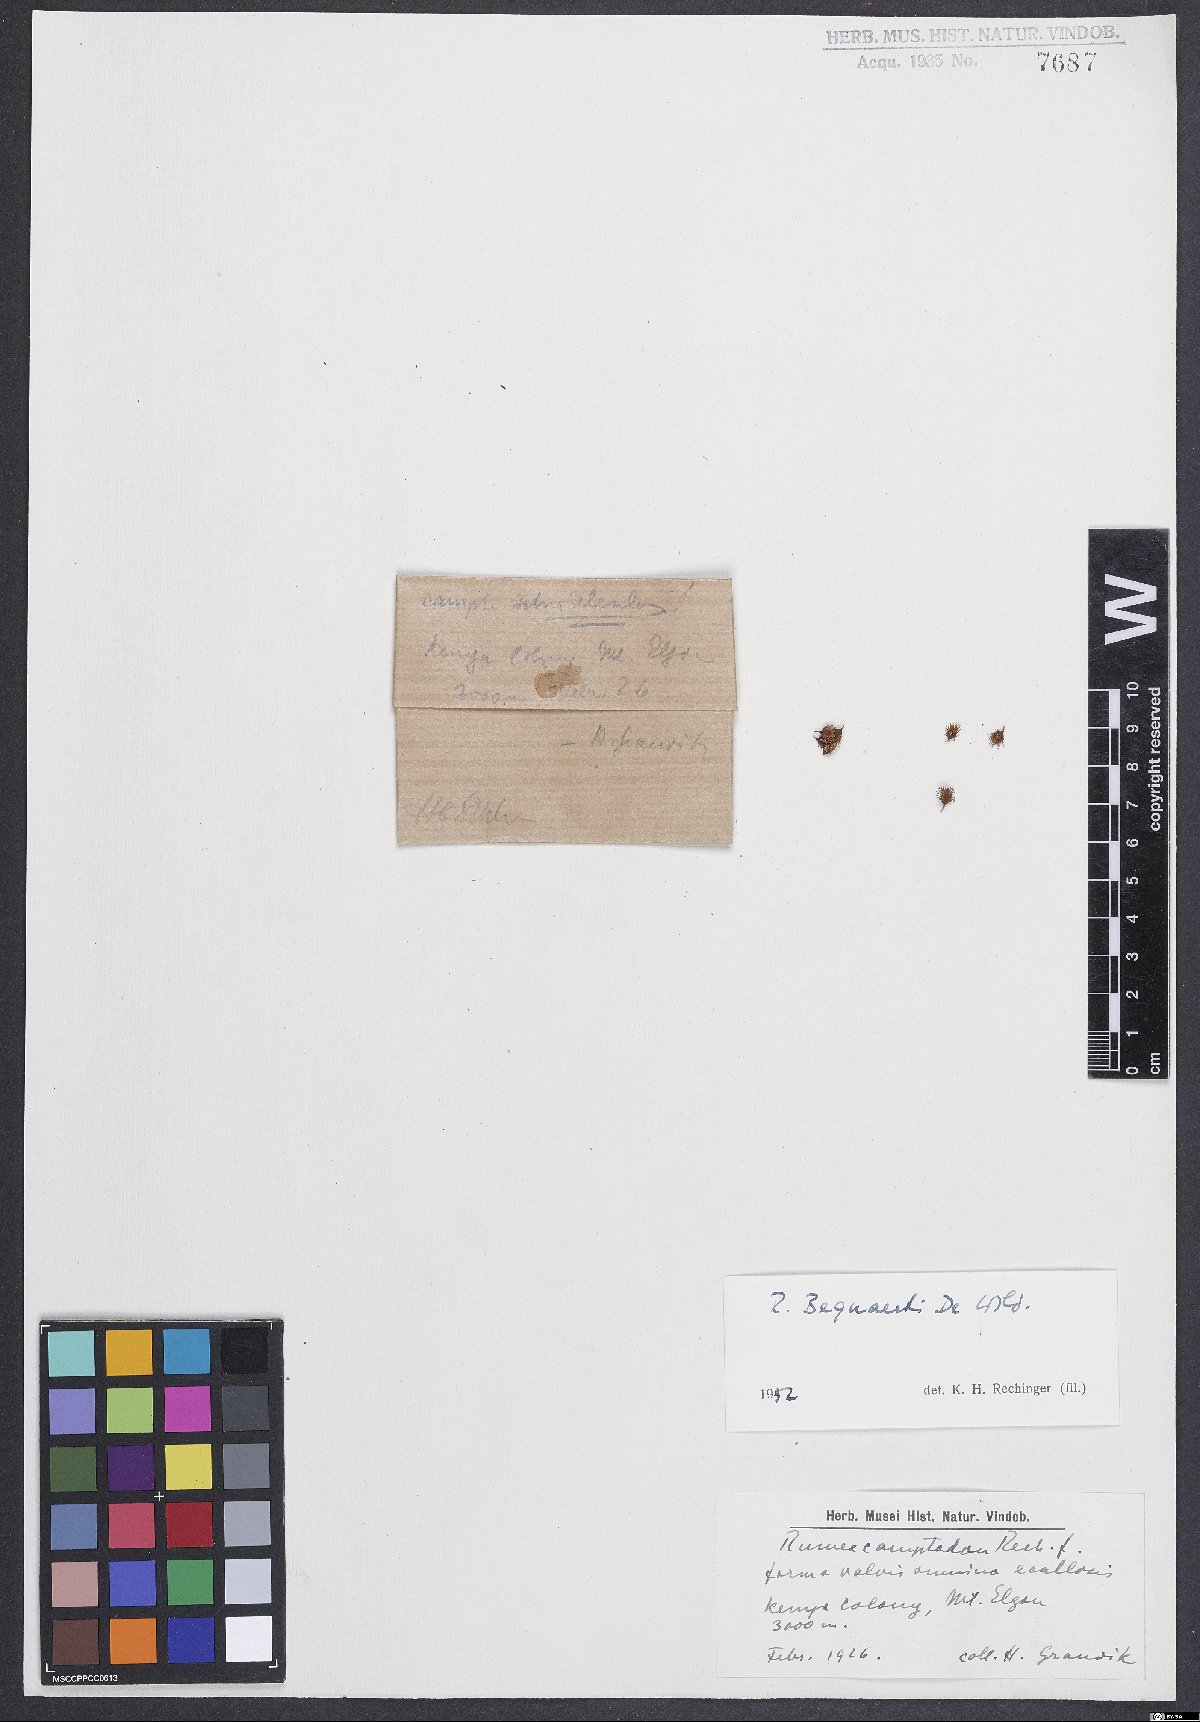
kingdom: Plantae
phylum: Tracheophyta
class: Magnoliopsida
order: Caryophyllales
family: Polygonaceae
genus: Rumex
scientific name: Rumex bequaertii
